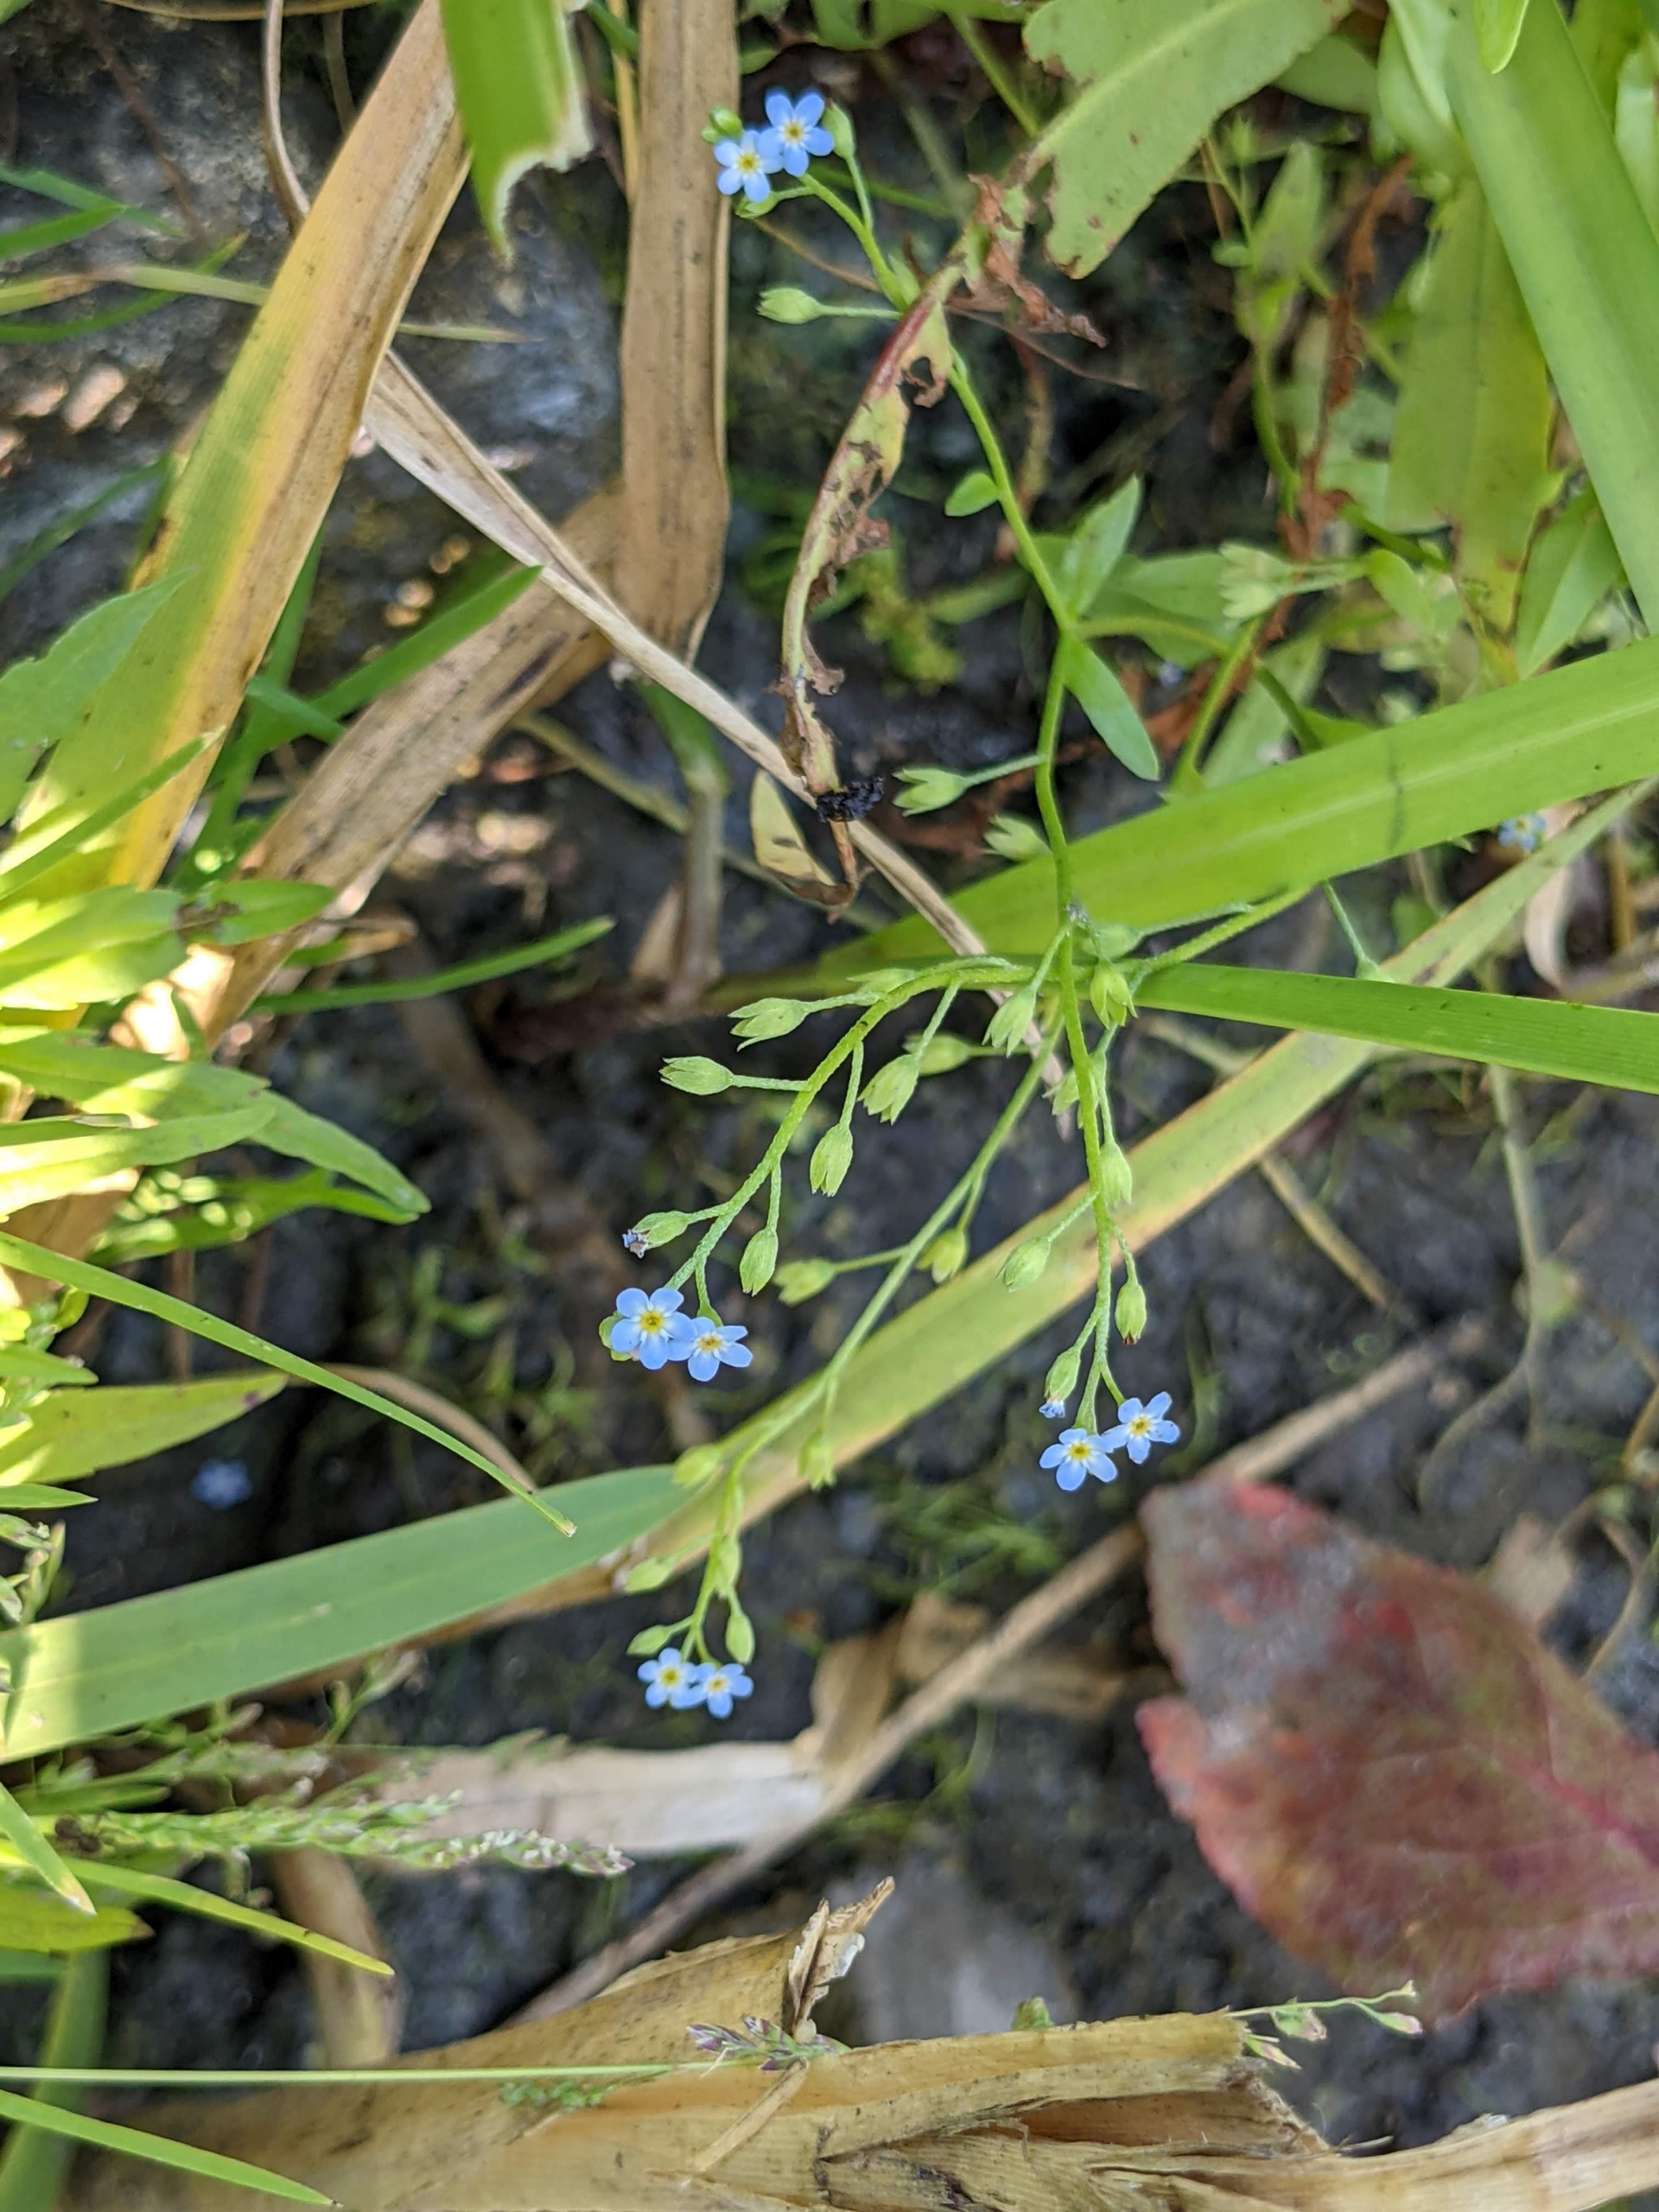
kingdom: Plantae
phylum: Tracheophyta
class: Magnoliopsida
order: Boraginales
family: Boraginaceae
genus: Myosotis
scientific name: Myosotis laxa
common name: Sump-forglemmigej
